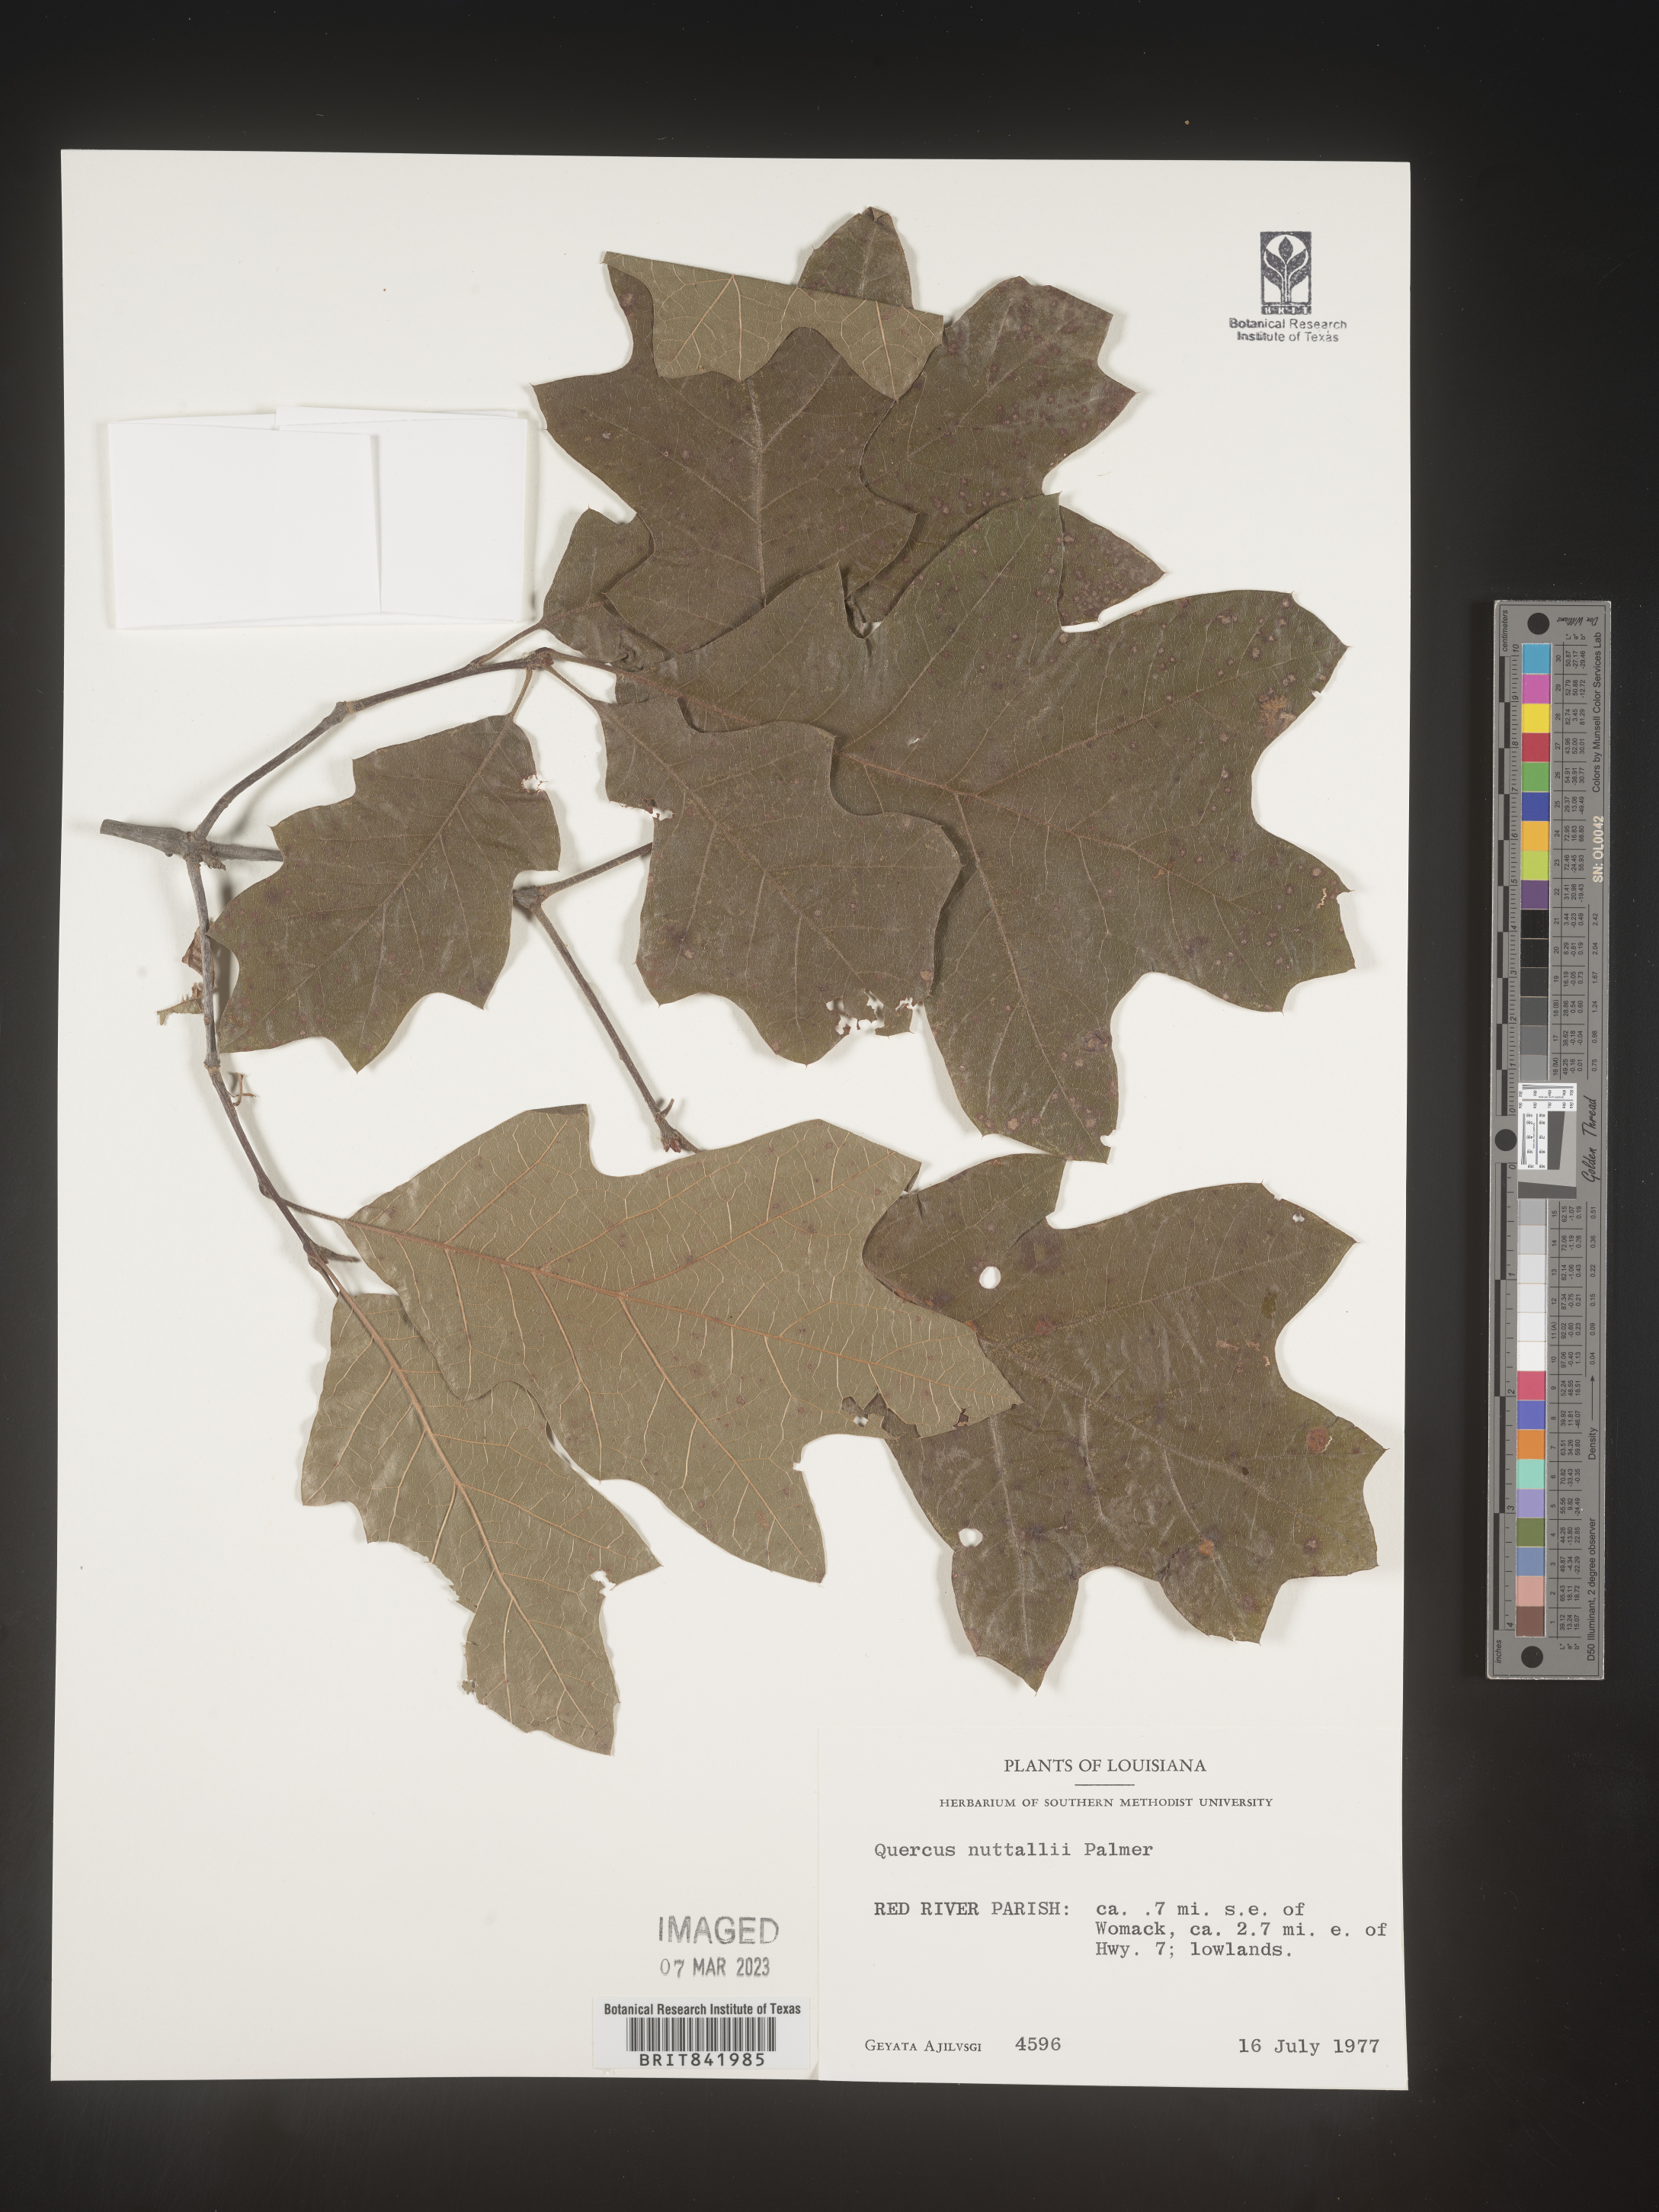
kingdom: Plantae
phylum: Tracheophyta
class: Magnoliopsida
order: Fagales
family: Fagaceae
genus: Quercus
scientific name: Quercus texana
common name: Nuttall oak
